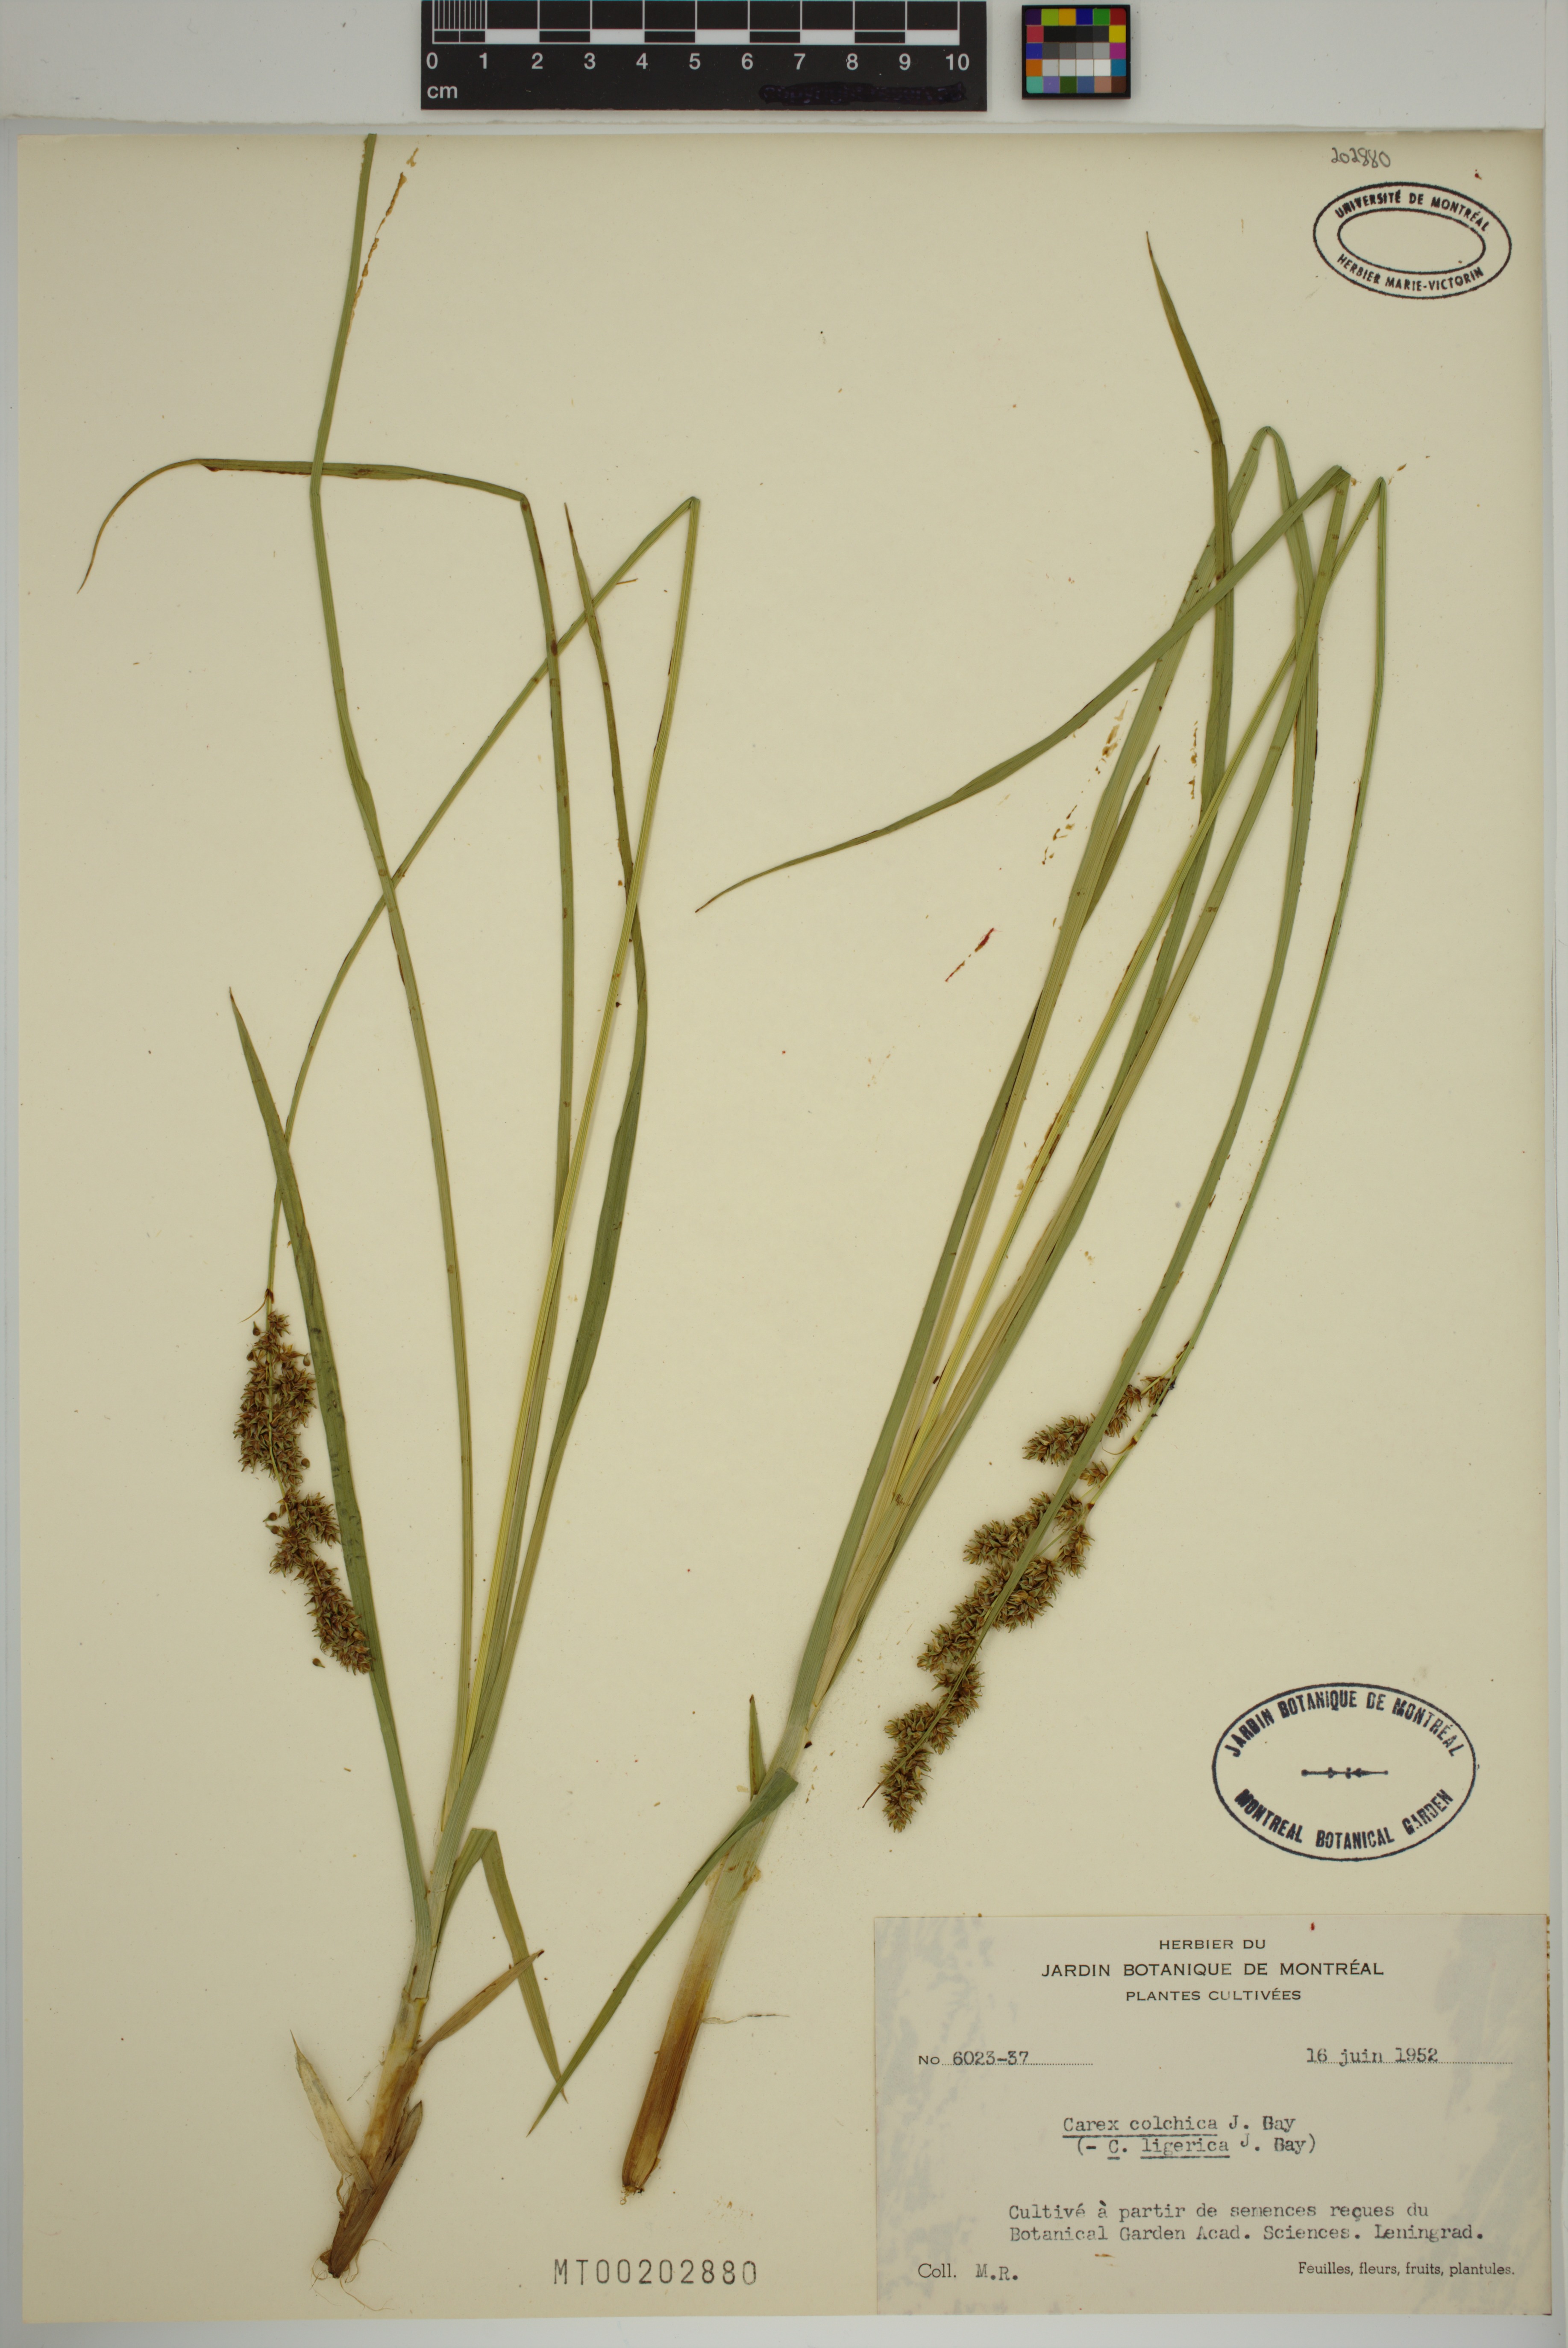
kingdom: Plantae
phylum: Tracheophyta
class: Liliopsida
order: Poales
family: Cyperaceae
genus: Carex
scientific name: Carex colchica
